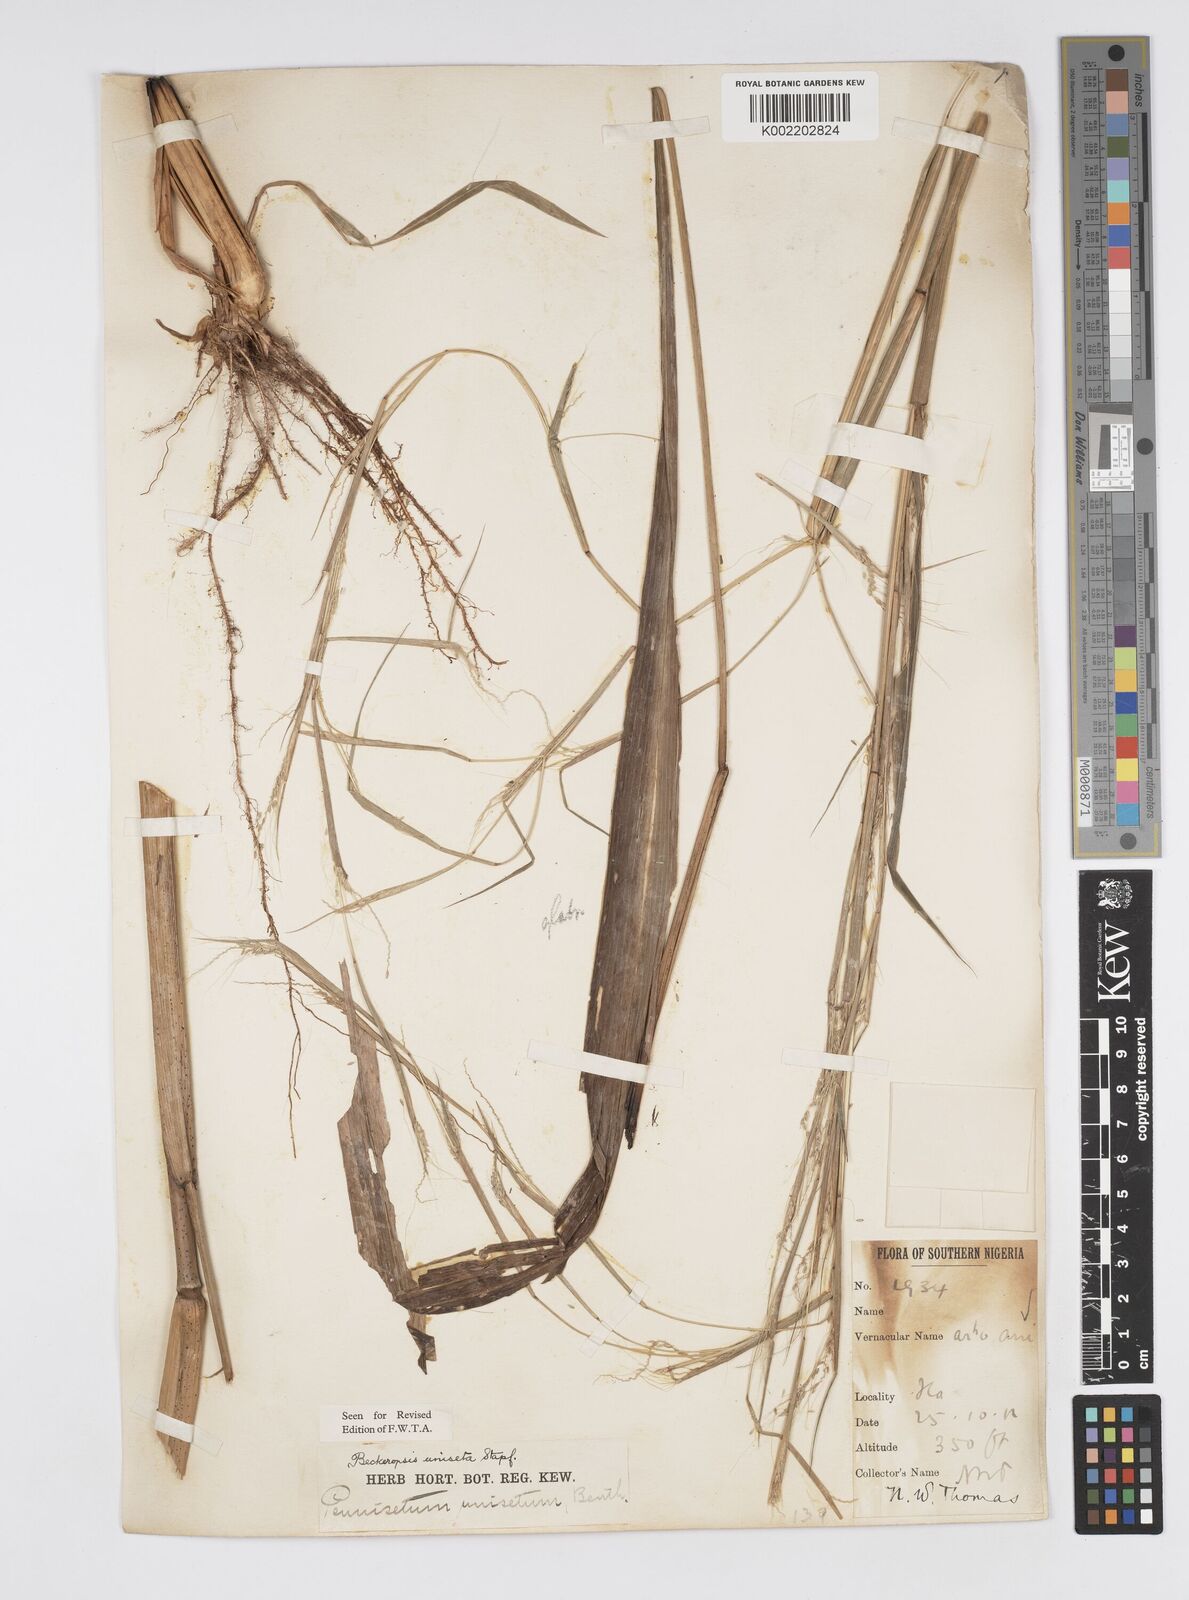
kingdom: Plantae
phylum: Tracheophyta
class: Liliopsida
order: Poales
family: Poaceae
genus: Cenchrus
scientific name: Cenchrus unisetus
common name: Natal grass
